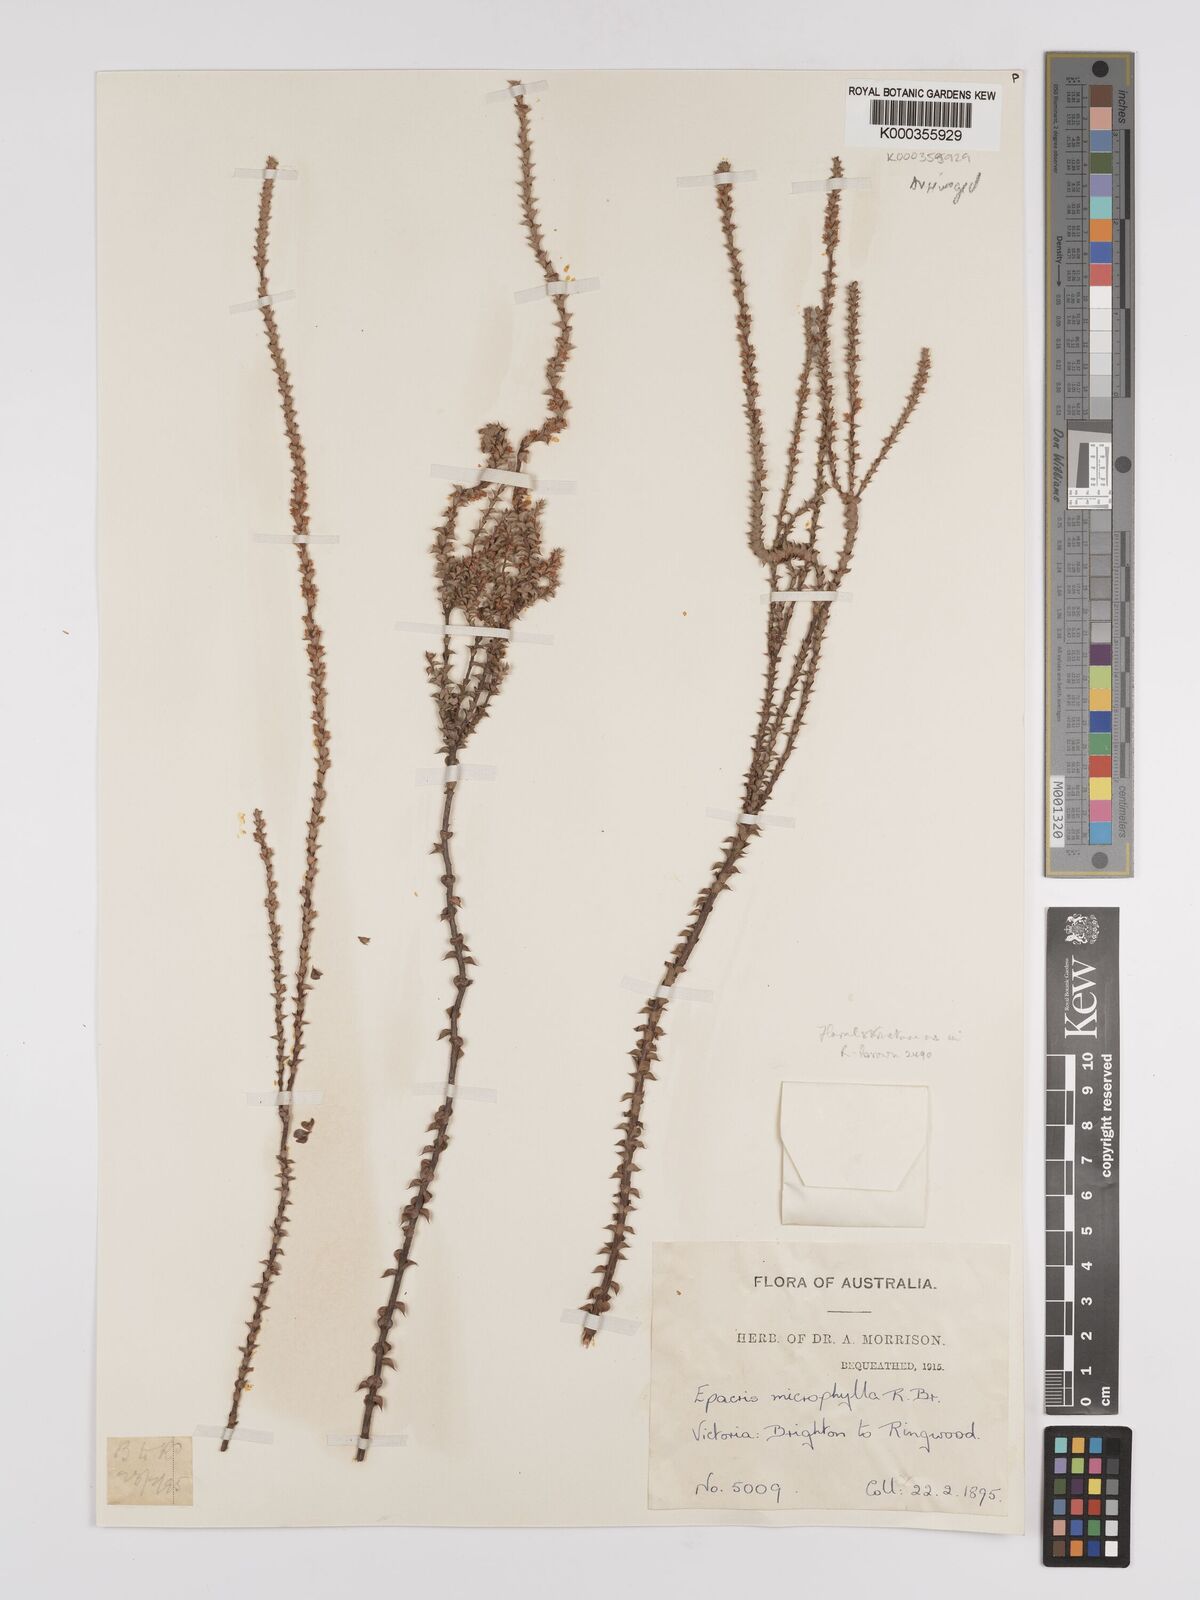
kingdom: Plantae
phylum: Tracheophyta
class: Magnoliopsida
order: Ericales
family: Ericaceae
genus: Epacris
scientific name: Epacris
